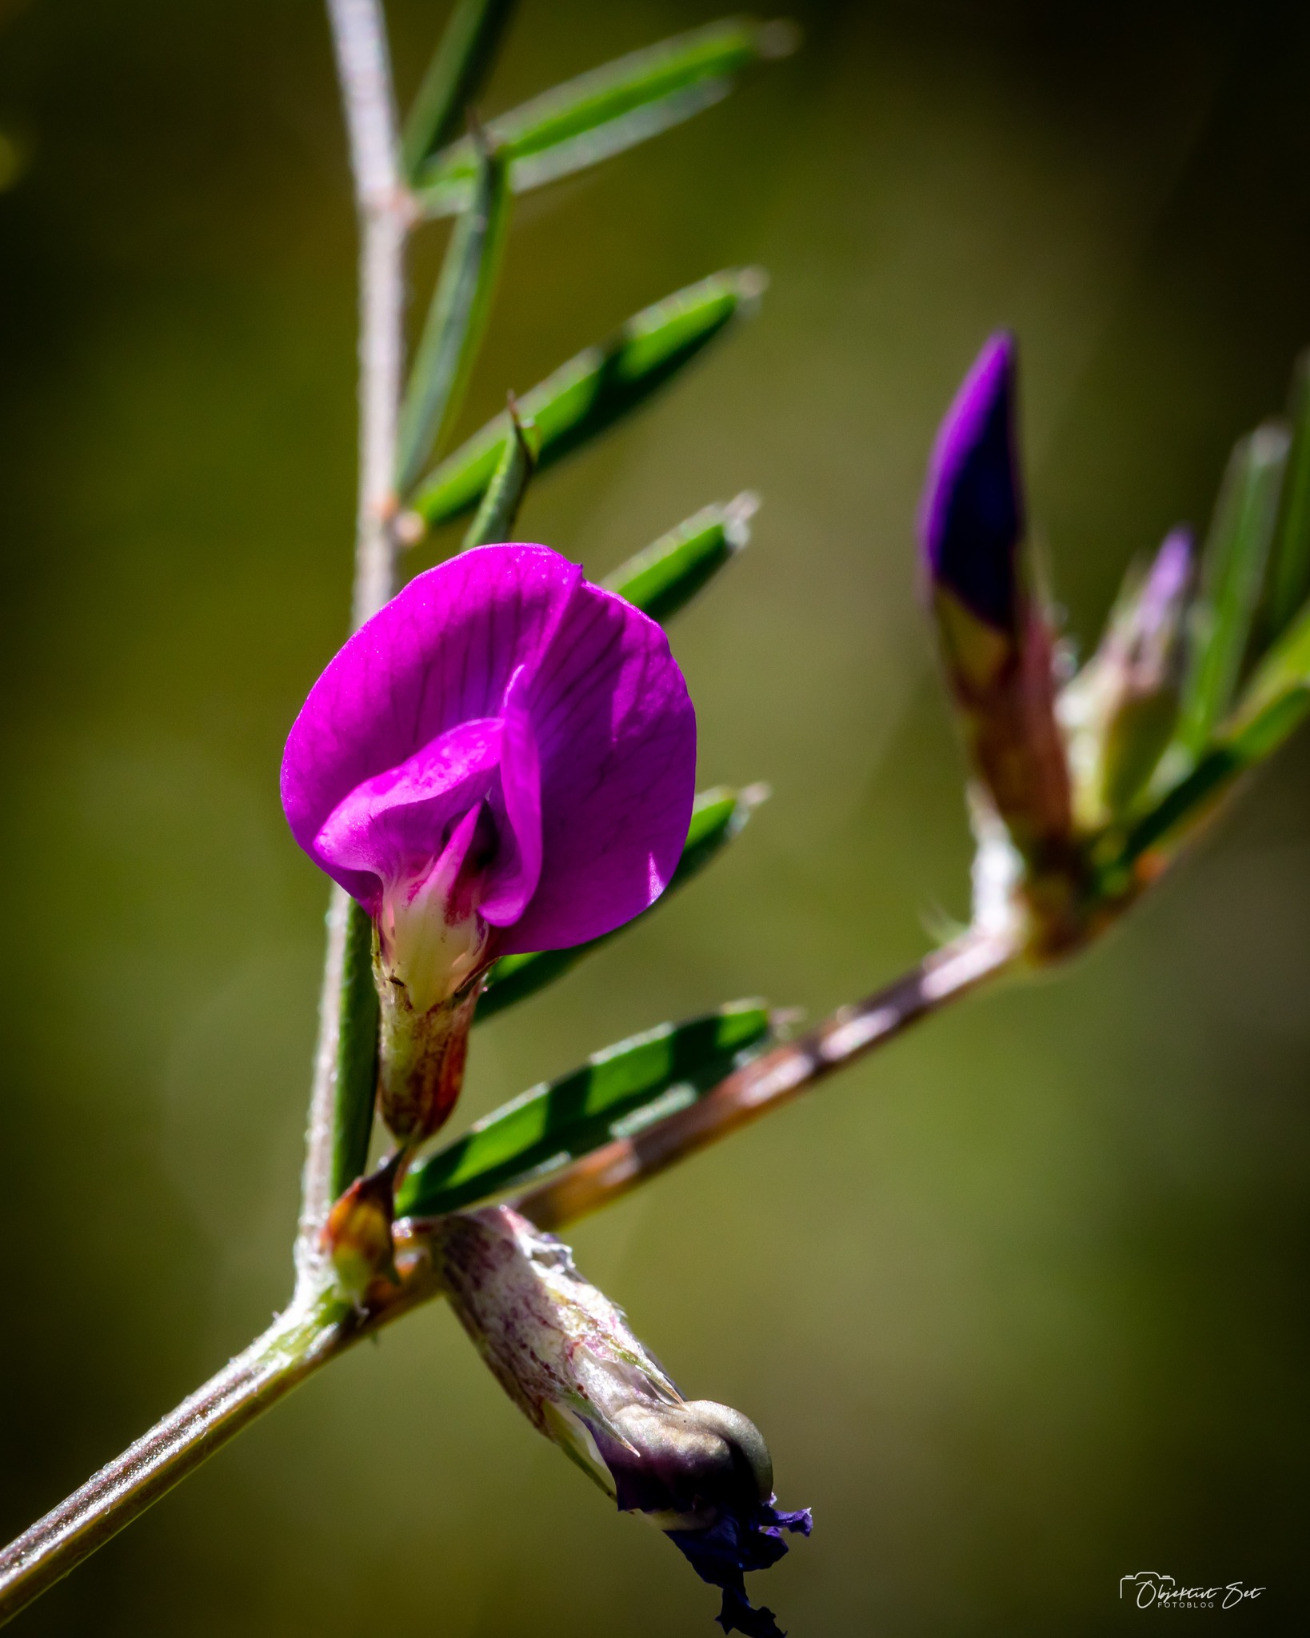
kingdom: Plantae
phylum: Tracheophyta
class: Magnoliopsida
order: Fabales
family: Fabaceae
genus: Vicia
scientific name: Vicia sativa
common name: Foder-vikke
